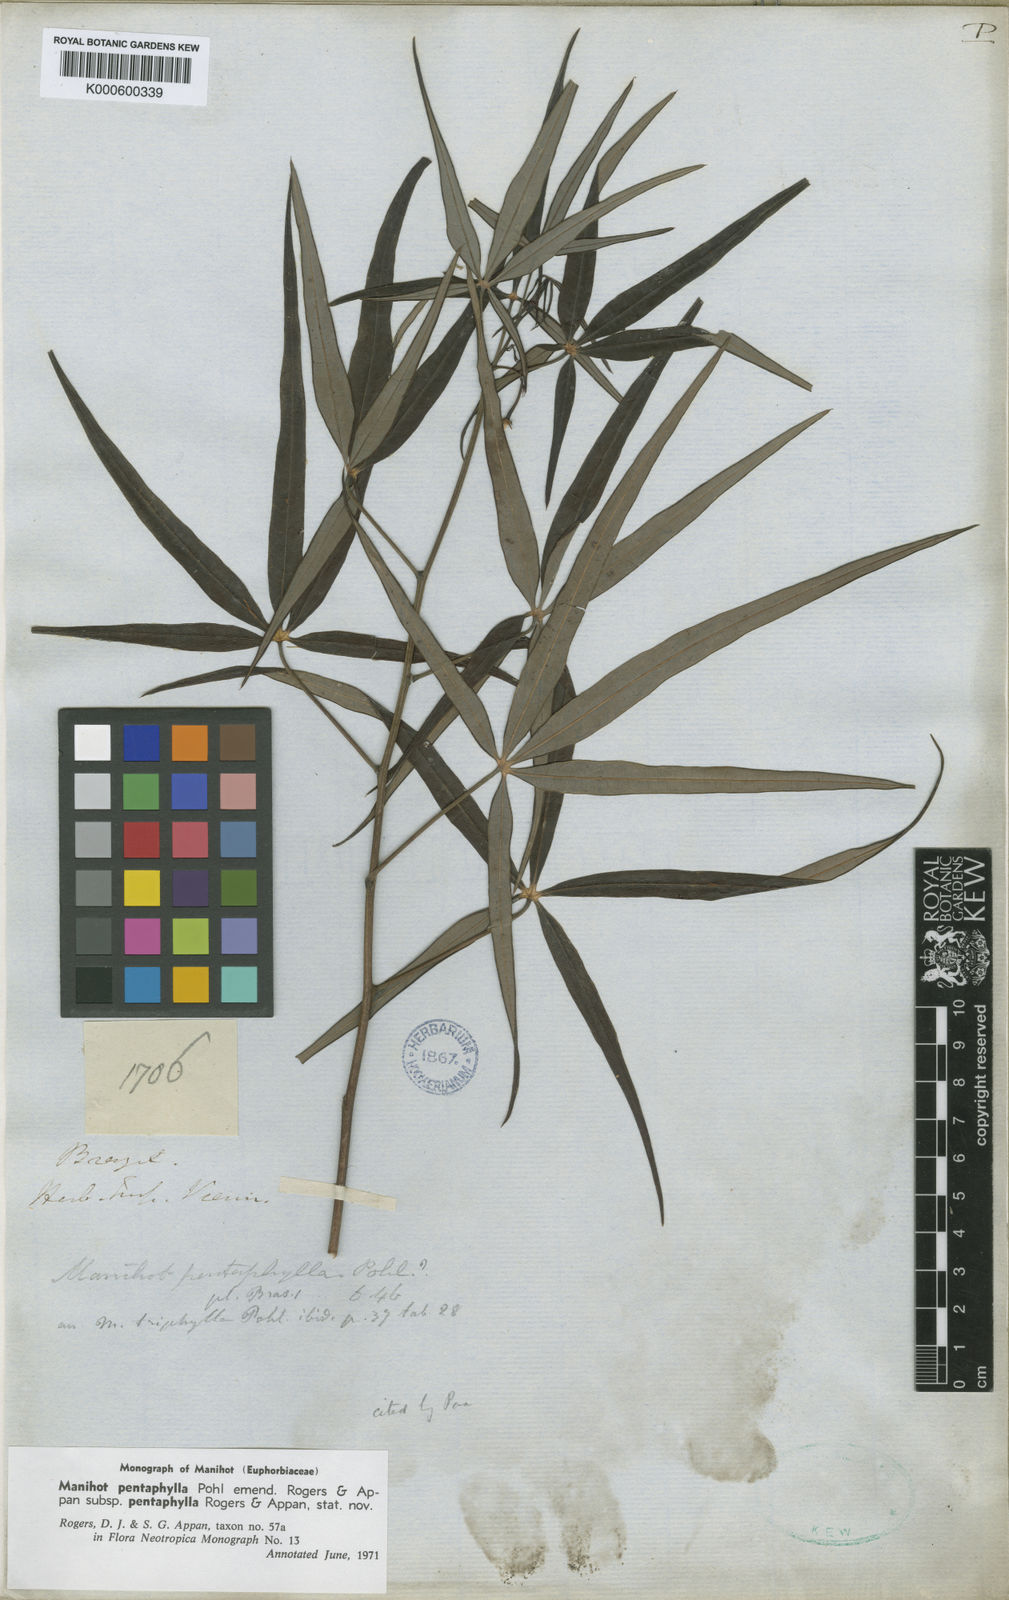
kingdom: Plantae
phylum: Tracheophyta
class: Magnoliopsida
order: Malpighiales
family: Euphorbiaceae
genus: Manihot
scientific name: Manihot pentaphylla
